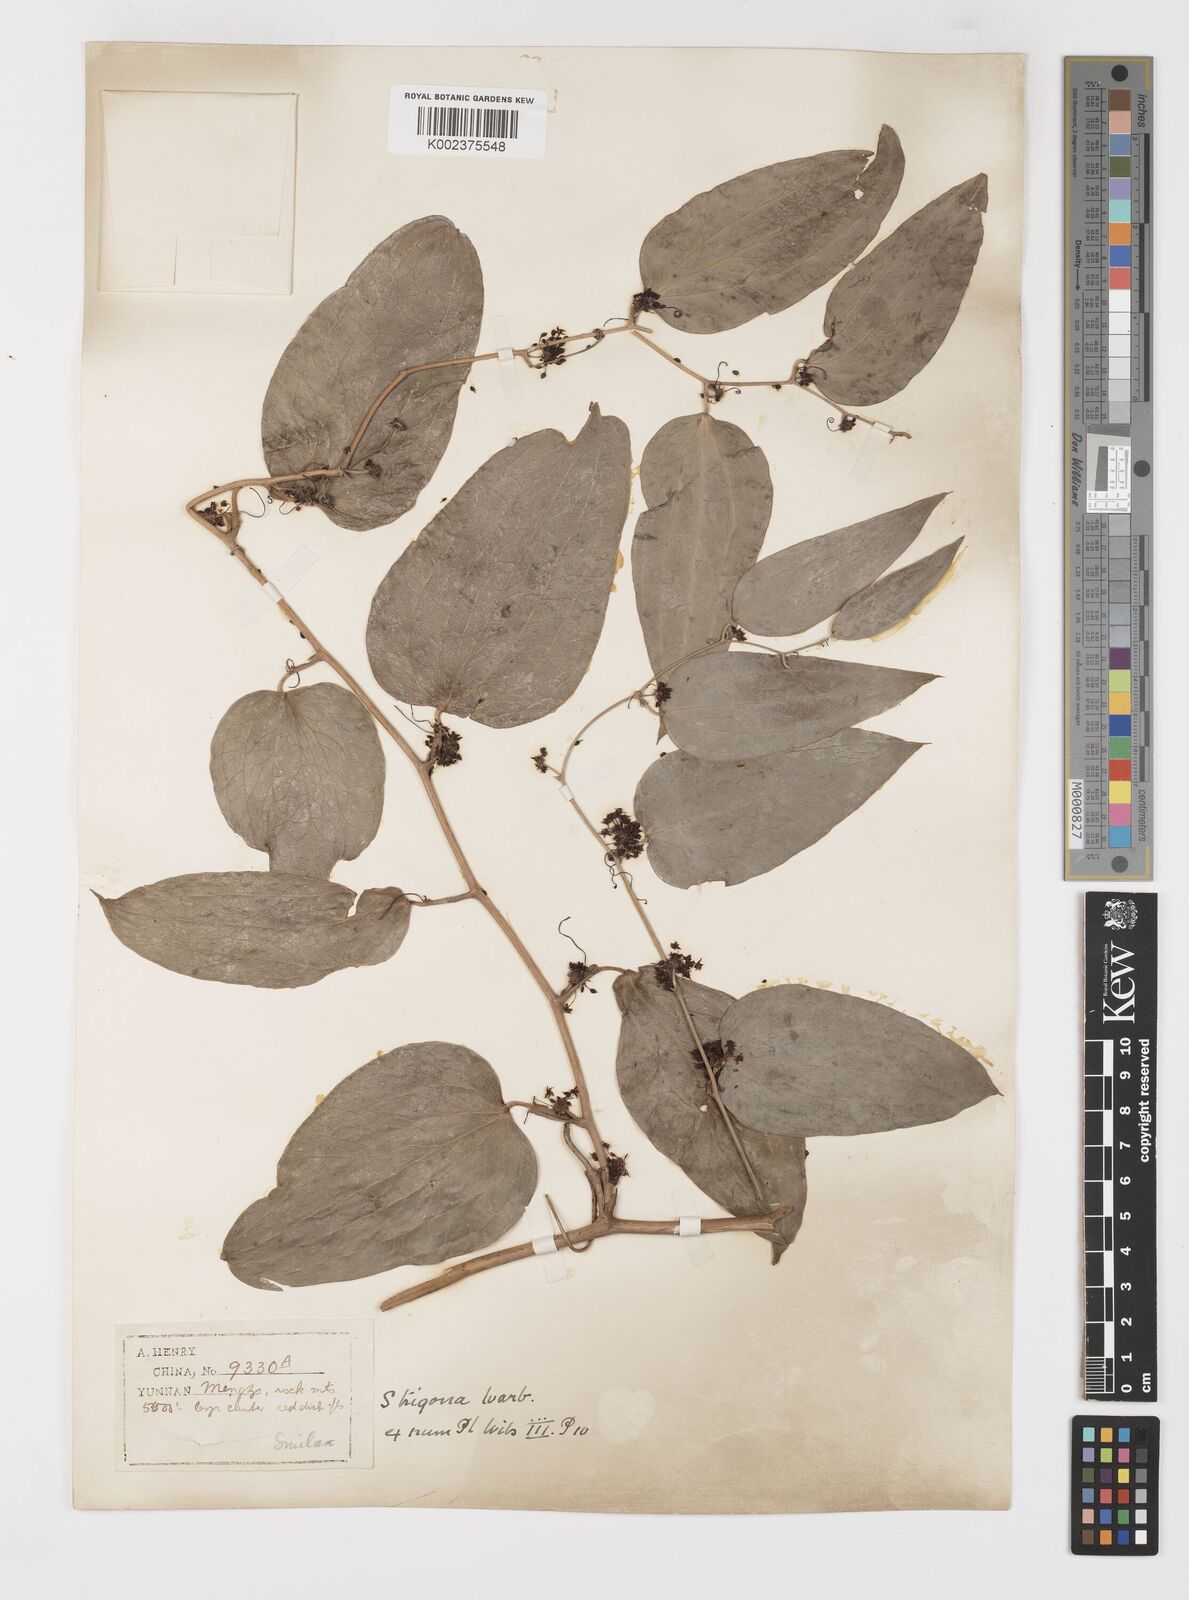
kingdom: Plantae
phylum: Tracheophyta
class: Liliopsida
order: Liliales
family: Smilacaceae
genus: Smilax
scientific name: Smilax lanceifolia
